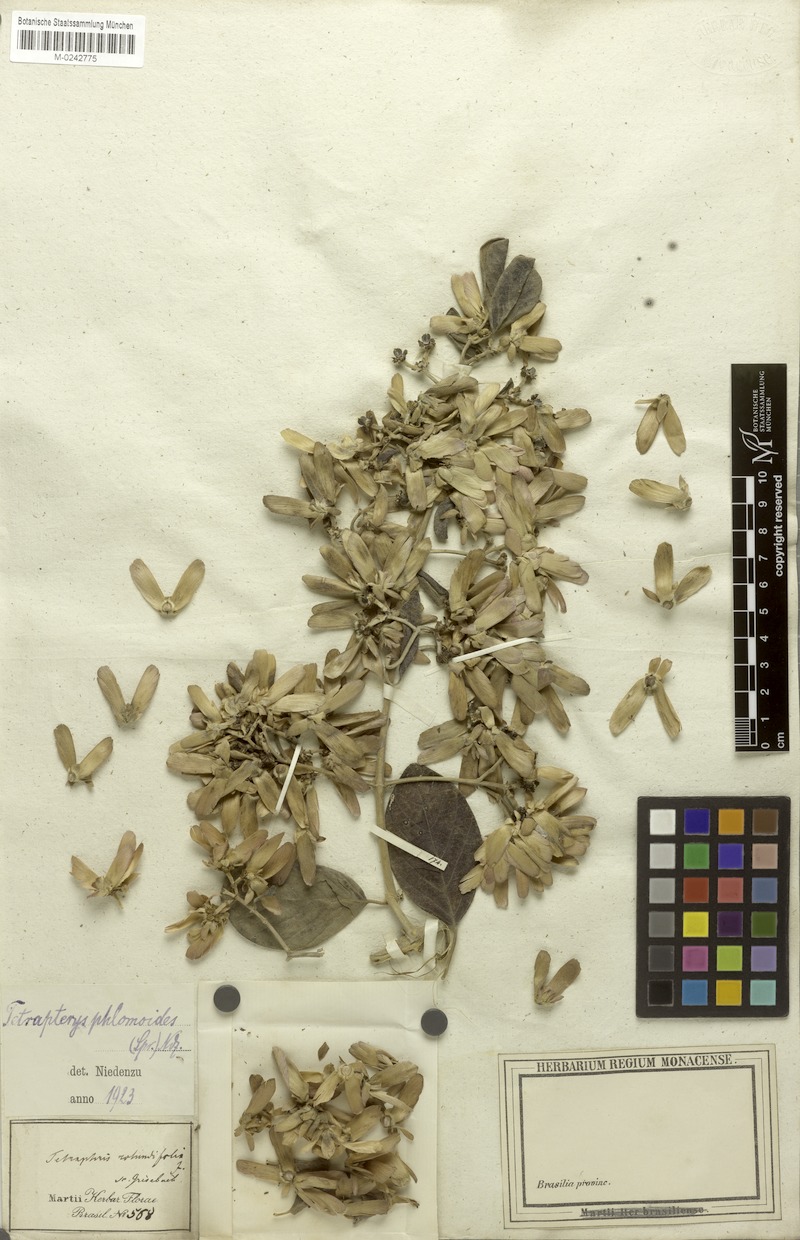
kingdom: Plantae
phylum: Tracheophyta
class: Magnoliopsida
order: Malpighiales
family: Malpighiaceae
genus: Tetrapterys
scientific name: Tetrapterys phlomoides
